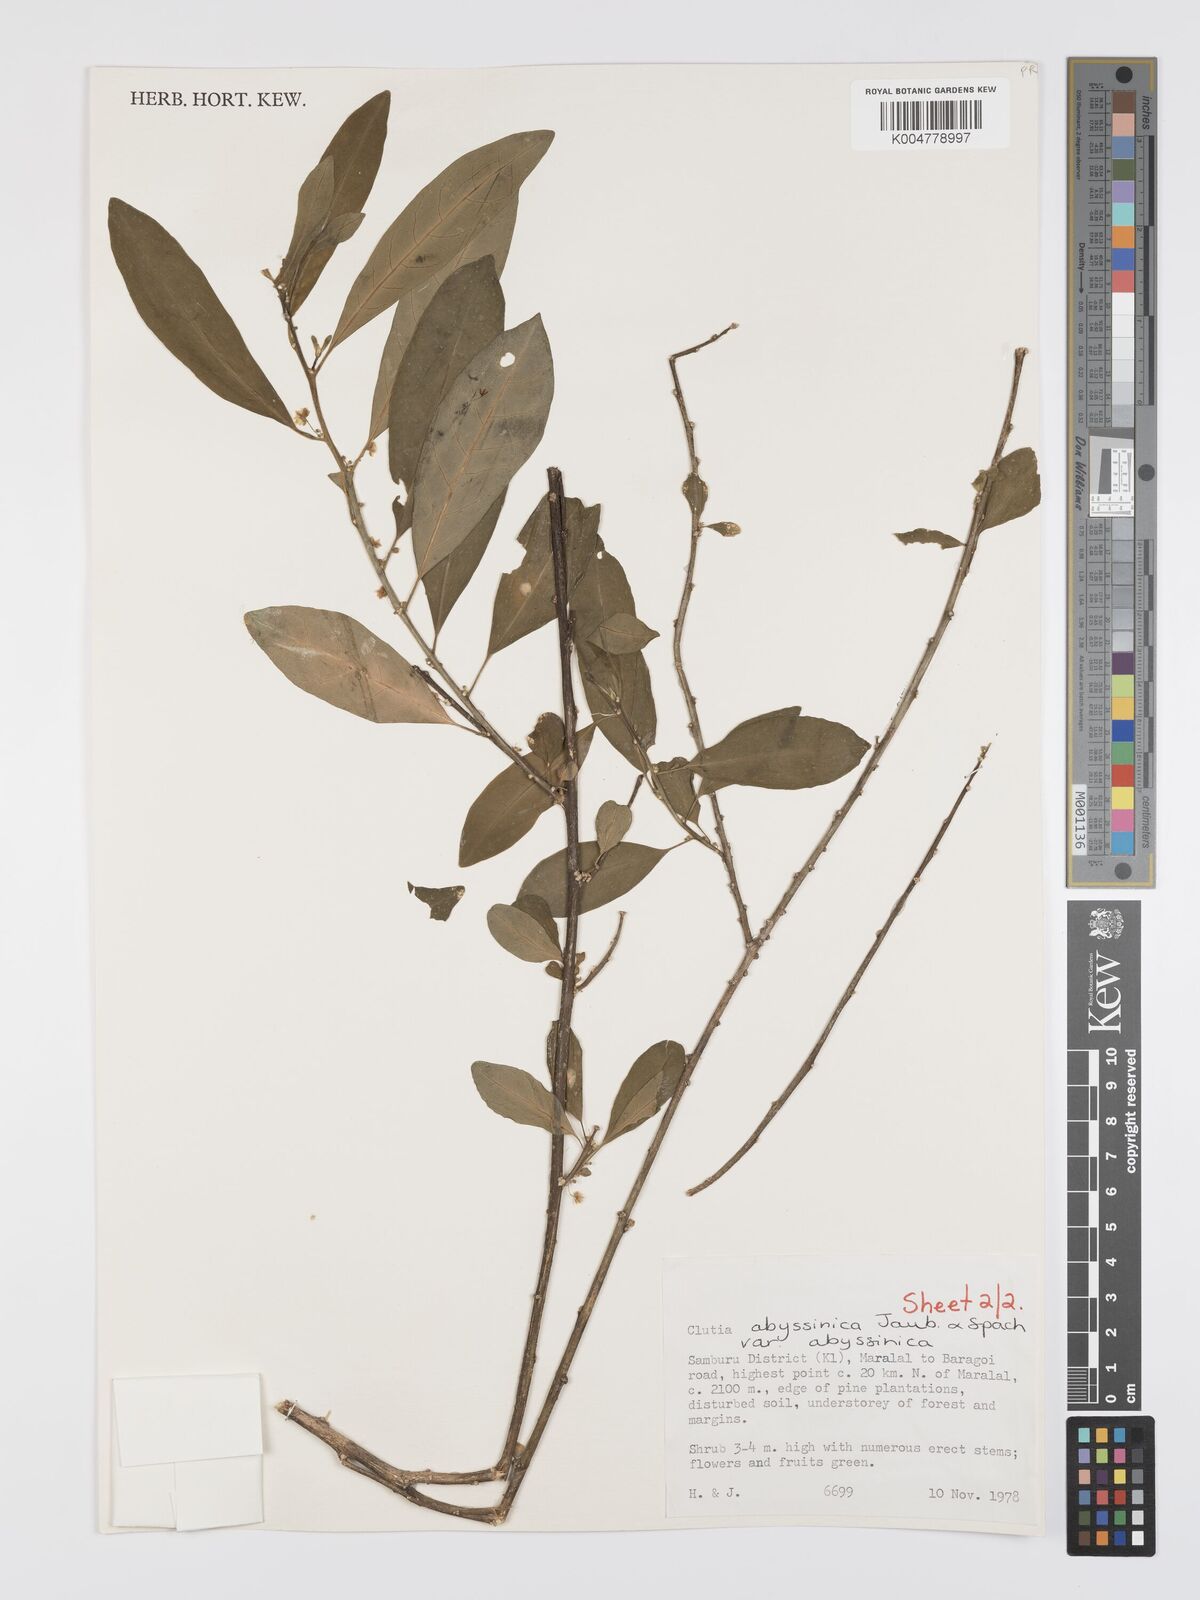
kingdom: Plantae
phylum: Tracheophyta
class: Magnoliopsida
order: Malpighiales
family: Peraceae
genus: Clutia
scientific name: Clutia abyssinica
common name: Large lightning bush
